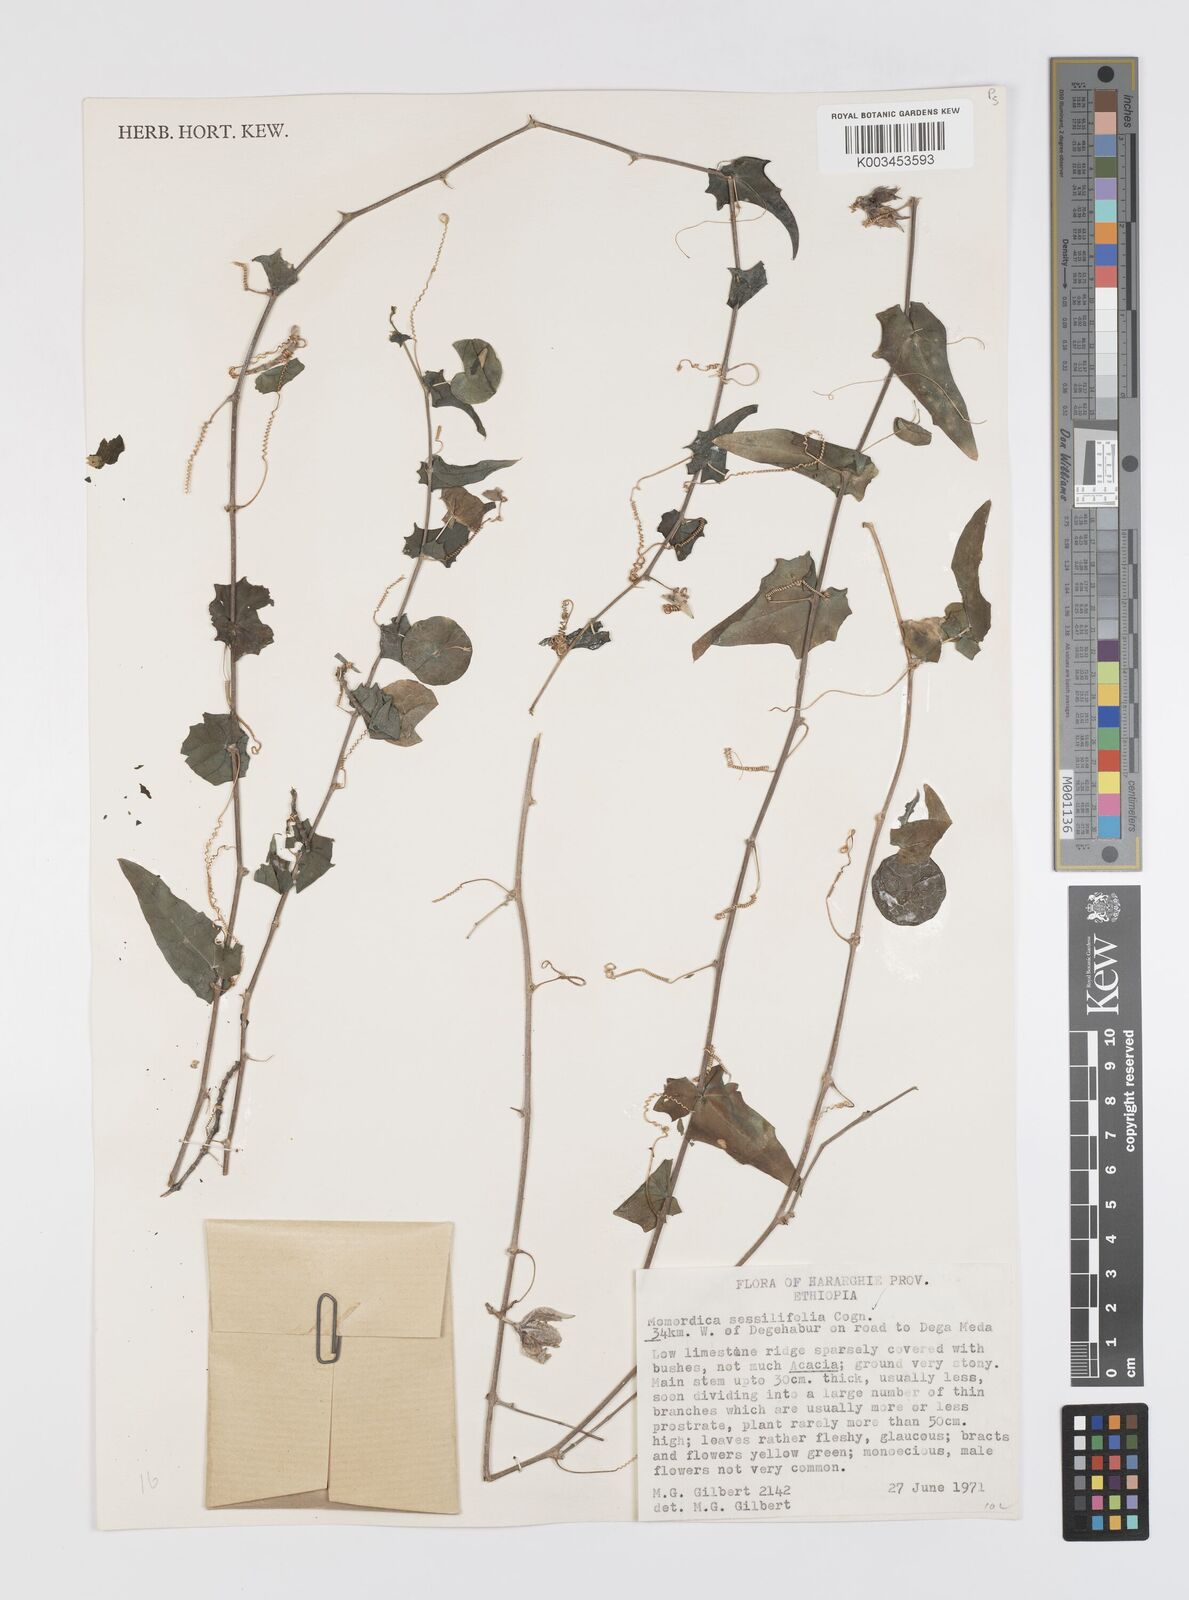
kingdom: Plantae
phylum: Tracheophyta
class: Magnoliopsida
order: Cucurbitales
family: Cucurbitaceae
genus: Momordica
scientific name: Momordica sessilifolia
